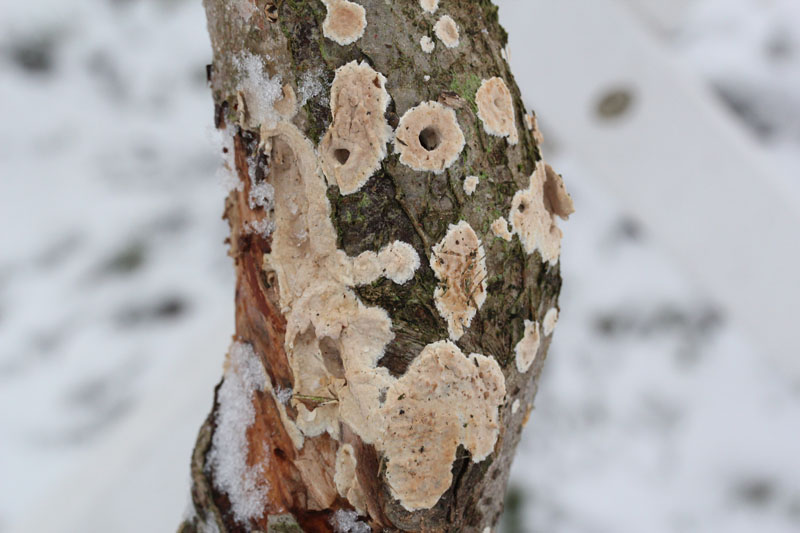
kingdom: Fungi
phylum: Basidiomycota
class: Agaricomycetes
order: Agaricales
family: Physalacriaceae
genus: Cylindrobasidium
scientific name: Cylindrobasidium evolvens
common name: sprækkehinde
